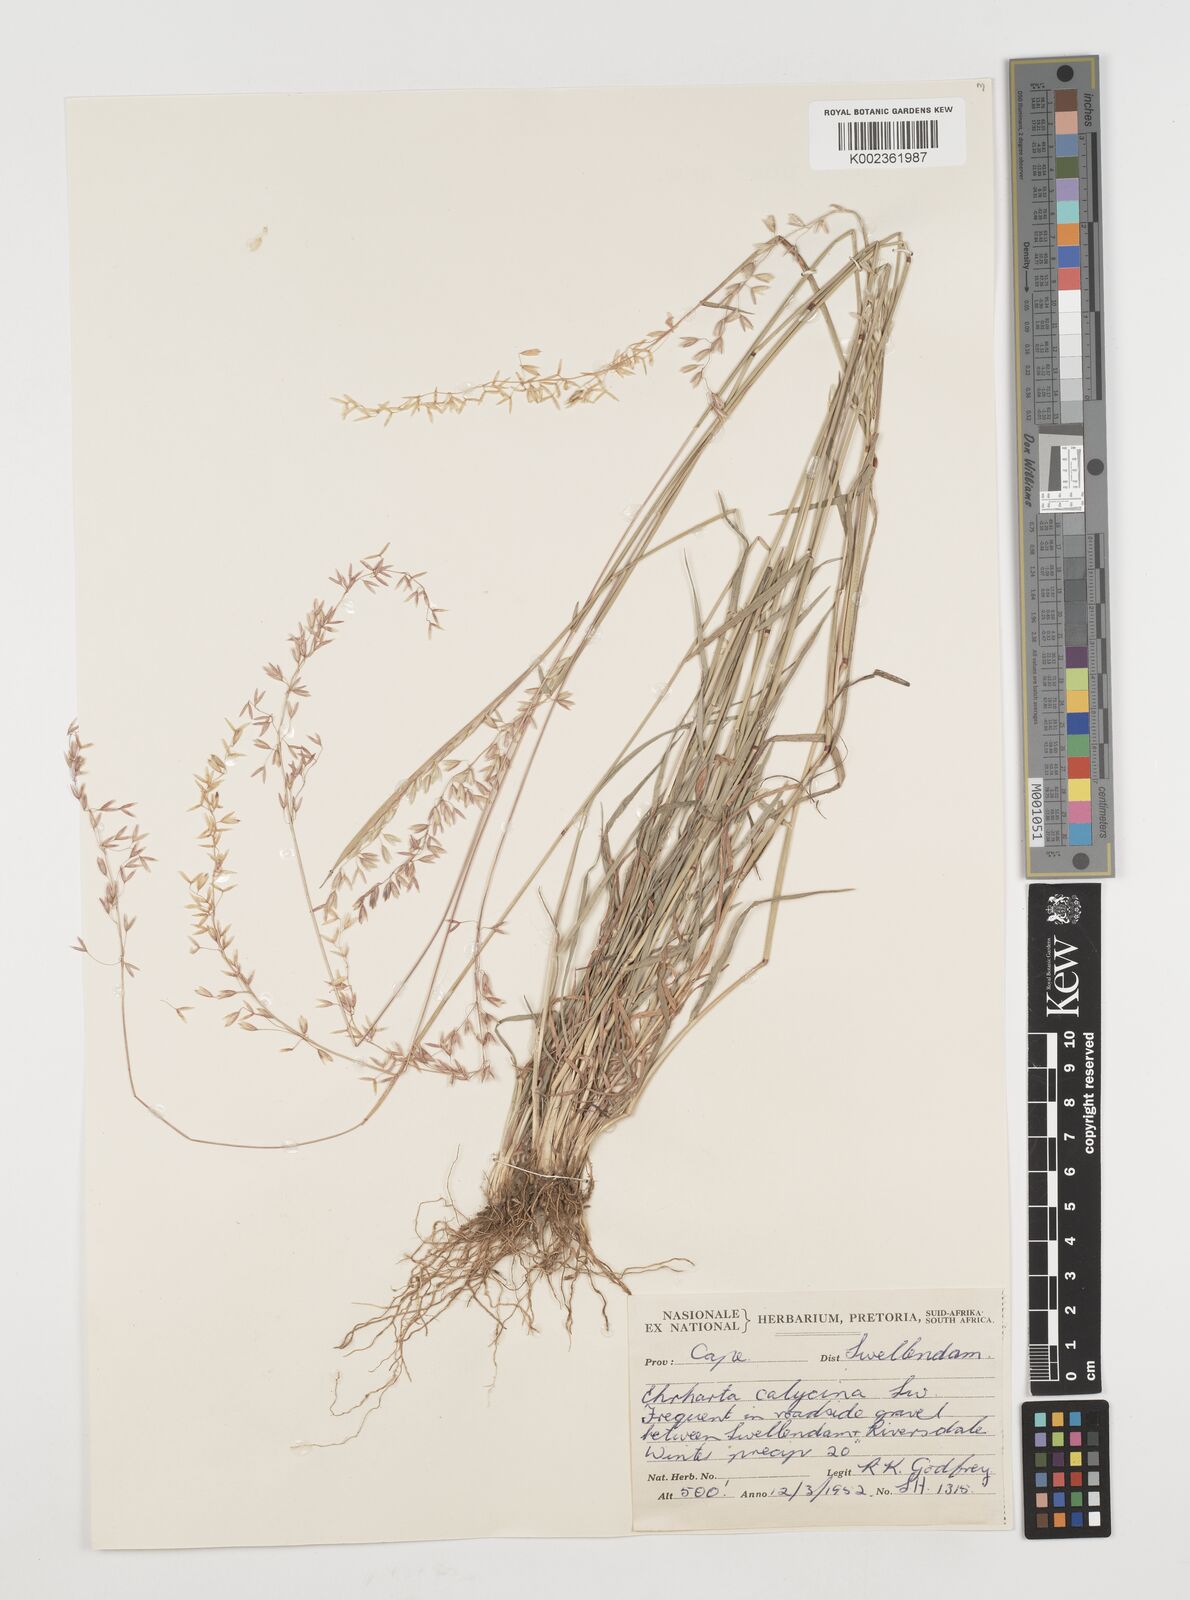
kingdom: Plantae
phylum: Tracheophyta
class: Liliopsida
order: Poales
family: Poaceae
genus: Ehrharta
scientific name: Ehrharta calycina
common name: Perennial veldtgrass
